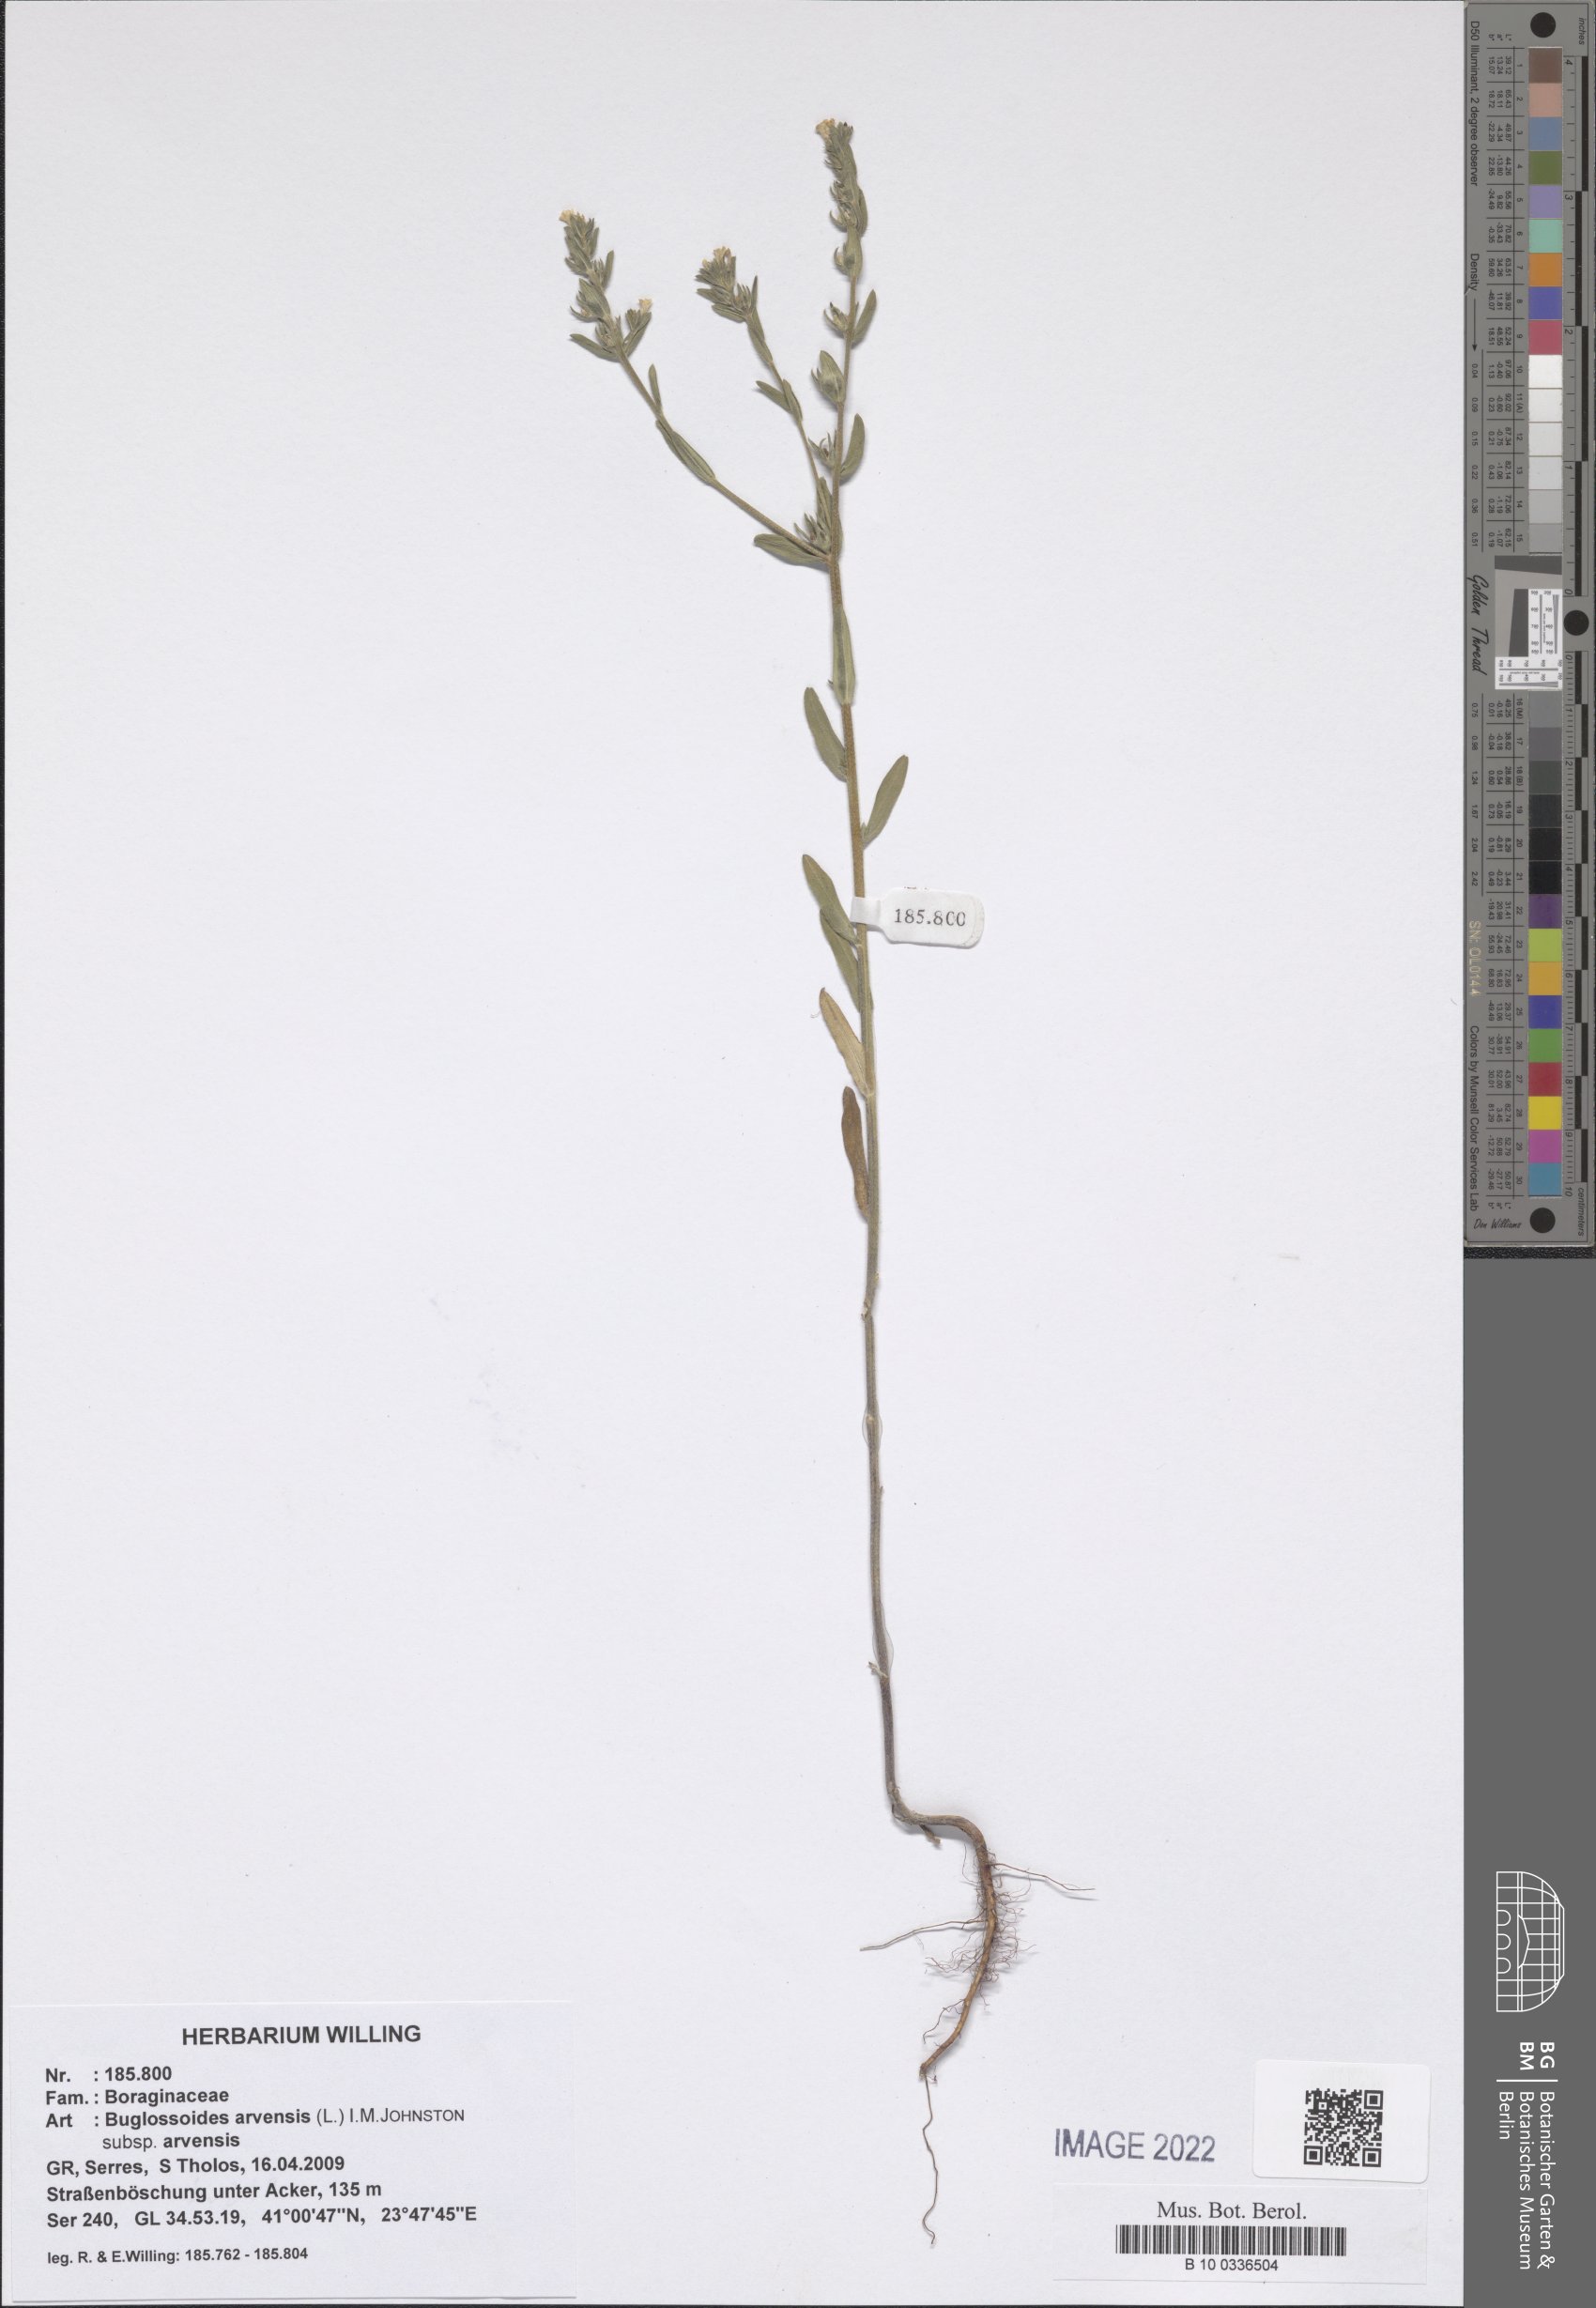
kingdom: Plantae
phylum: Tracheophyta
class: Magnoliopsida
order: Boraginales
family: Boraginaceae
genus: Buglossoides
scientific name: Buglossoides arvensis
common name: Corn gromwell
